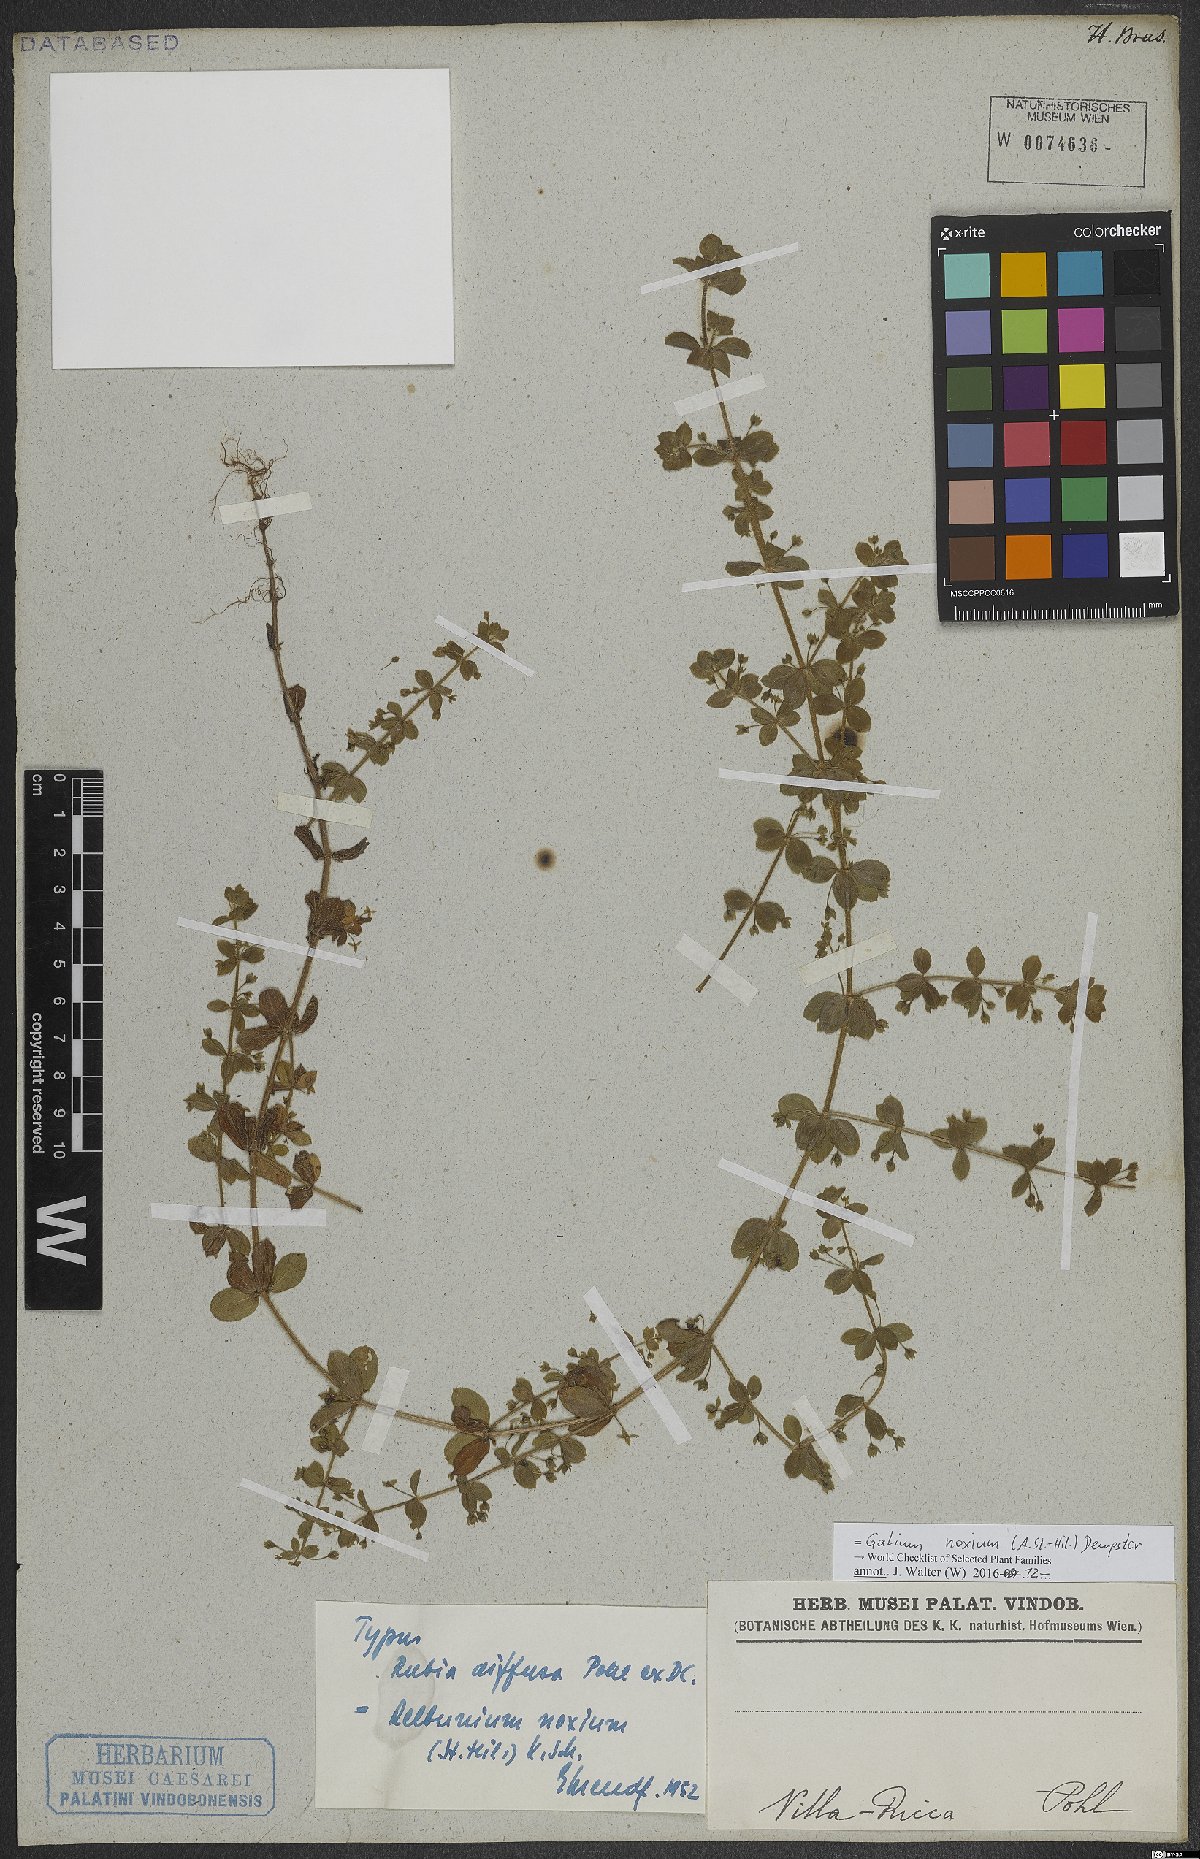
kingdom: Plantae
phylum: Tracheophyta
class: Magnoliopsida
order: Gentianales
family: Rubiaceae
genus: Galium
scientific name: Galium noxium
